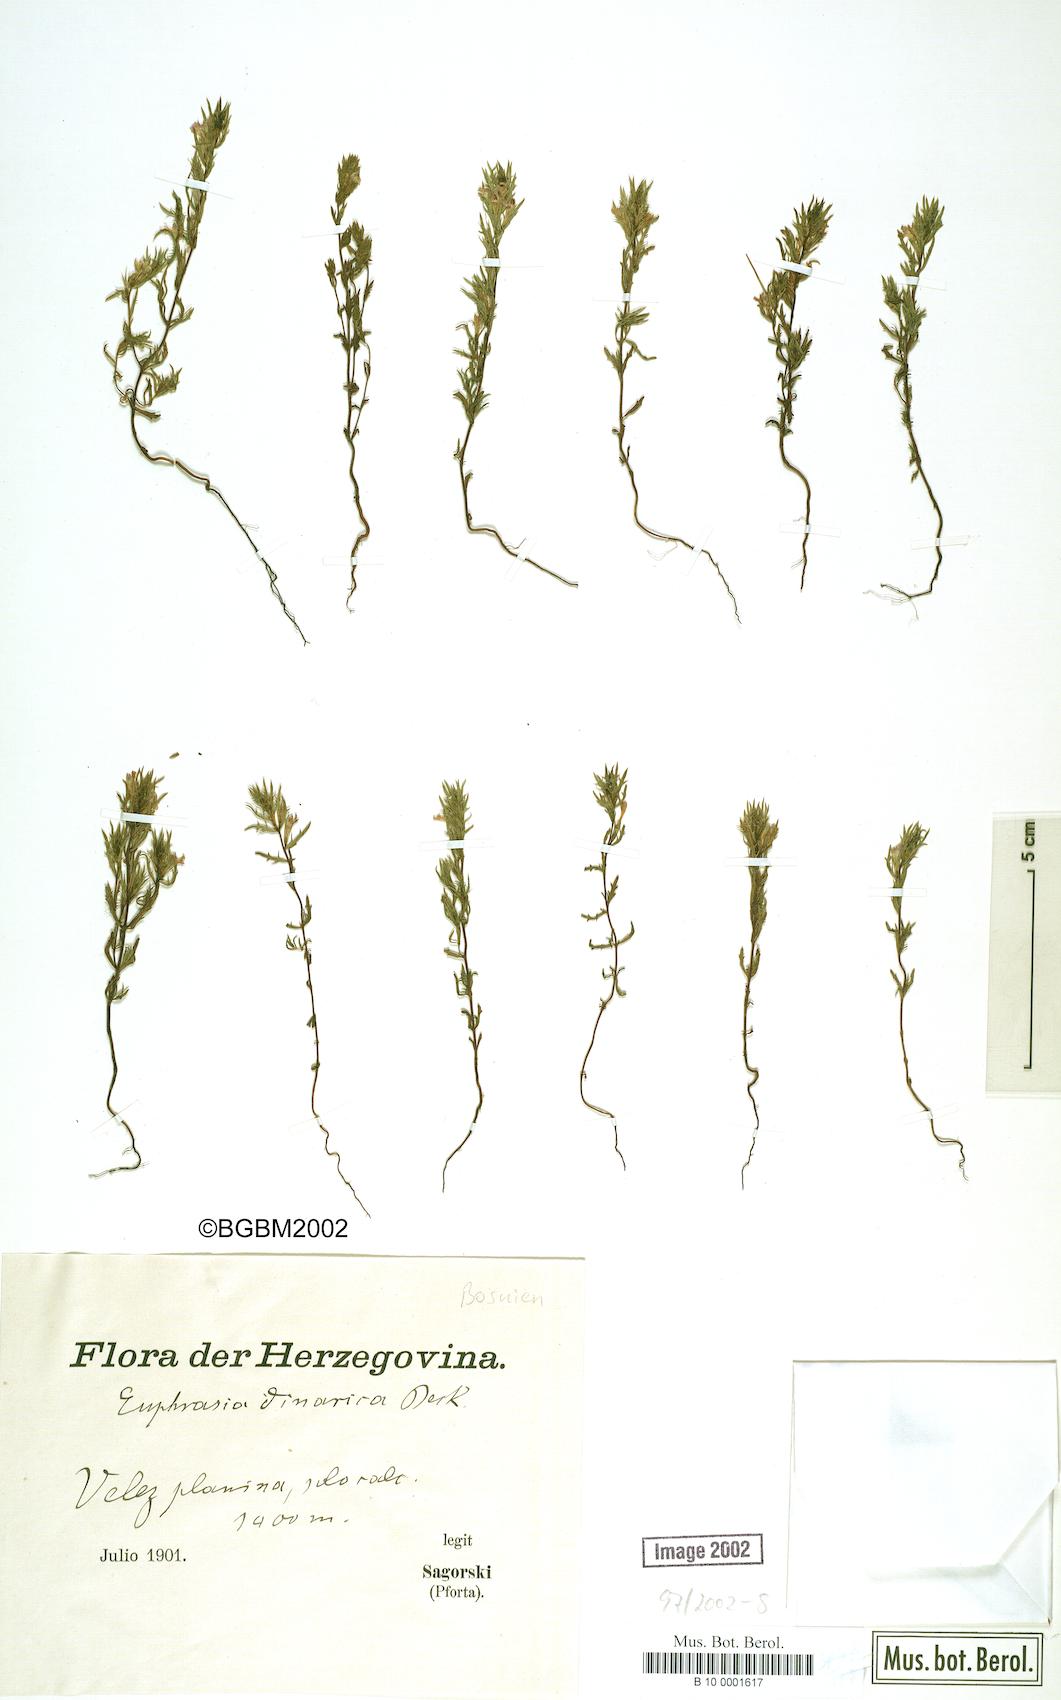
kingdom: Plantae
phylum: Tracheophyta
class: Magnoliopsida
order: Lamiales
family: Orobanchaceae
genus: Euphrasia
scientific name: Euphrasia dinarica
